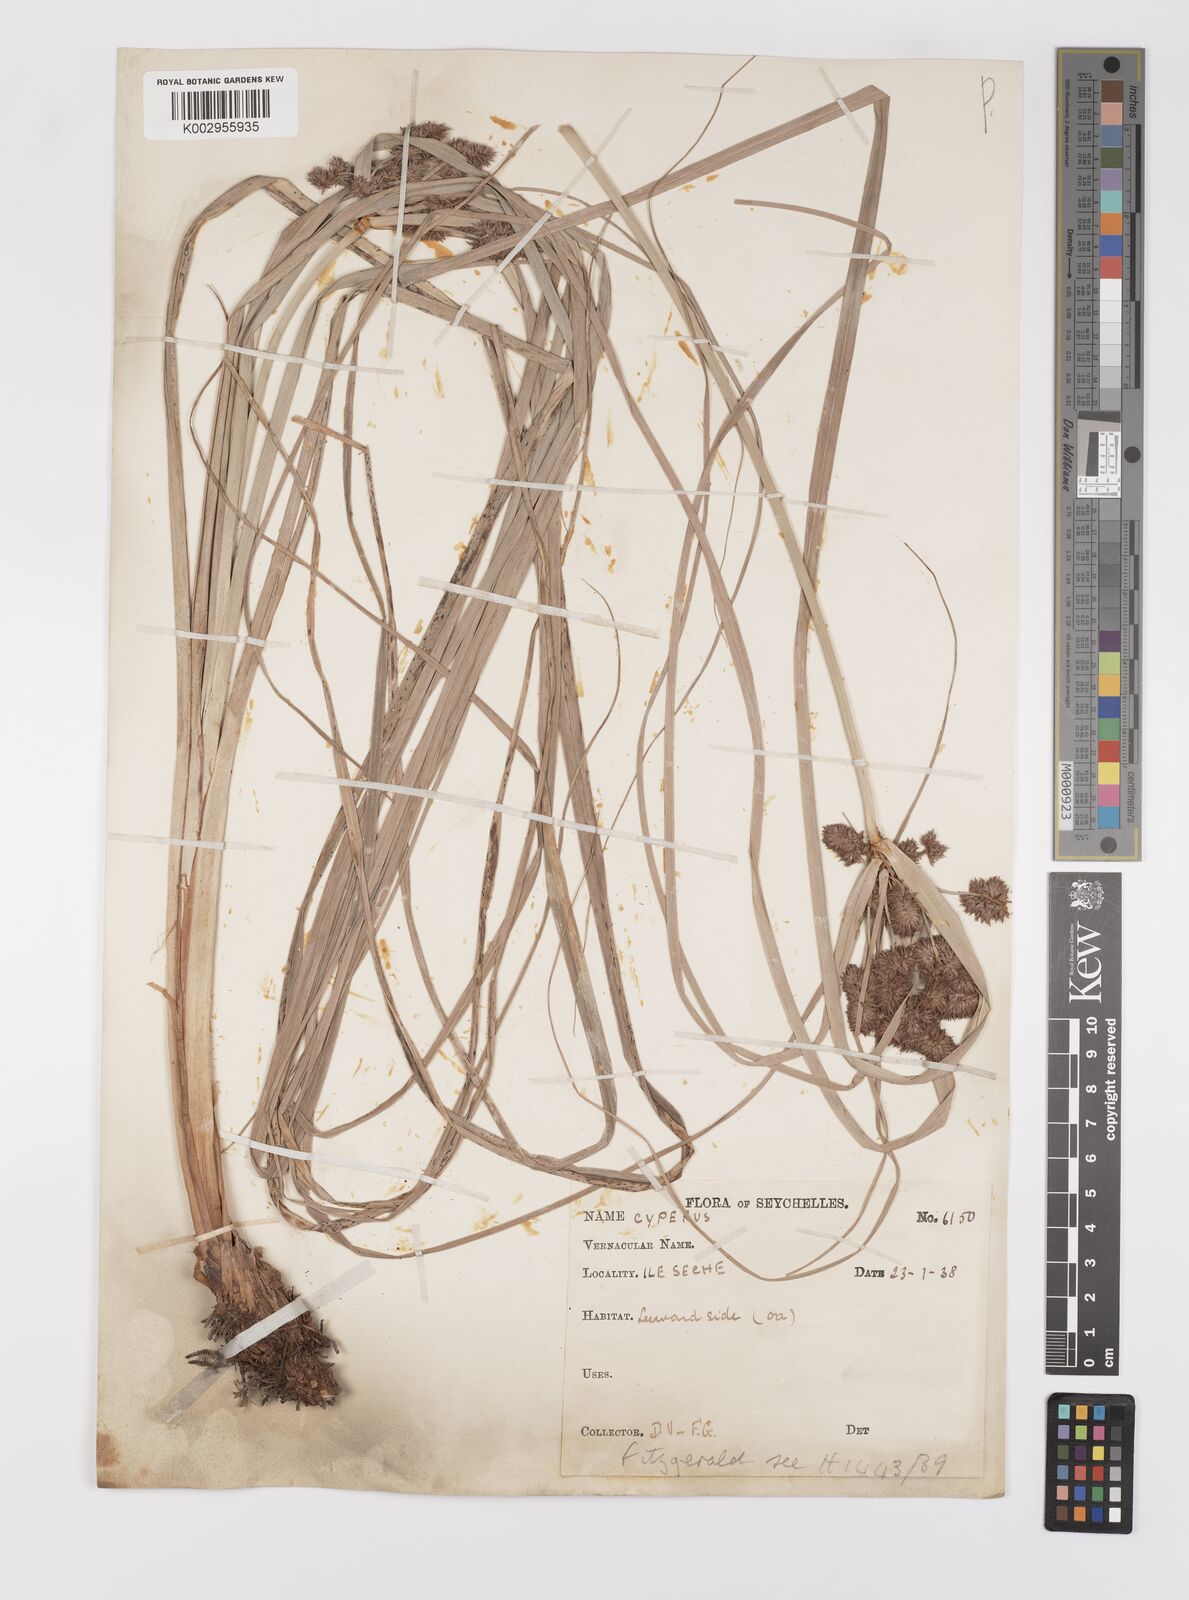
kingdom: Plantae
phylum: Tracheophyta
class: Liliopsida
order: Poales
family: Cyperaceae
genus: Cyperus
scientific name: Cyperus ligularis
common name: Swamp flat sedge
